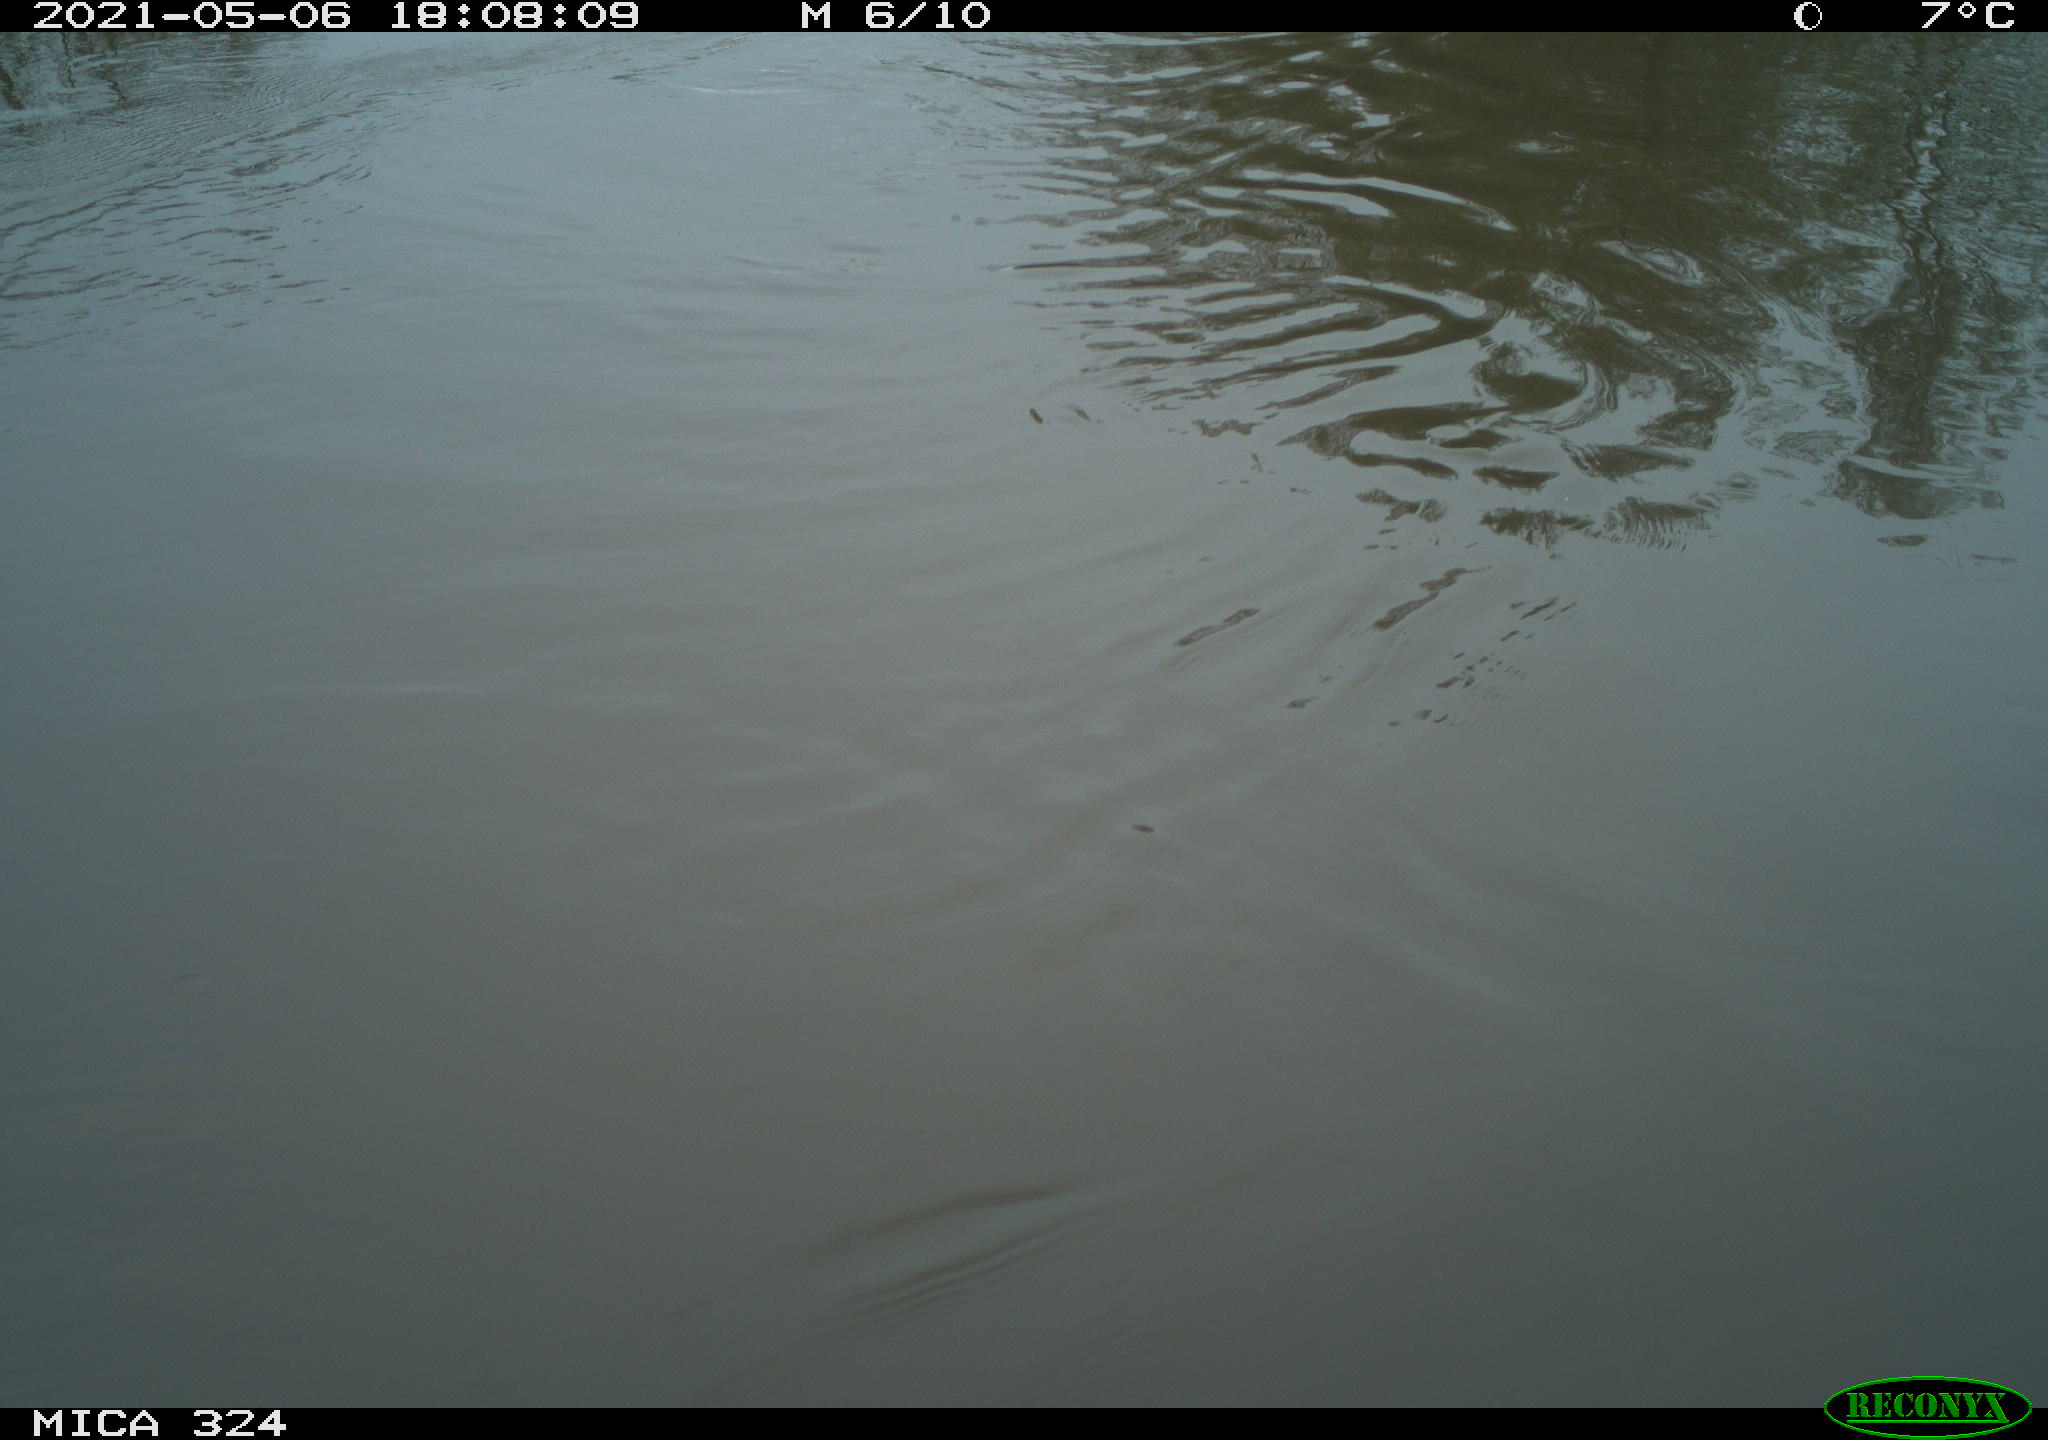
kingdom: Animalia
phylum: Chordata
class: Mammalia
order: Rodentia
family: Cricetidae
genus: Ondatra
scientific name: Ondatra zibethicus
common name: Muskrat
